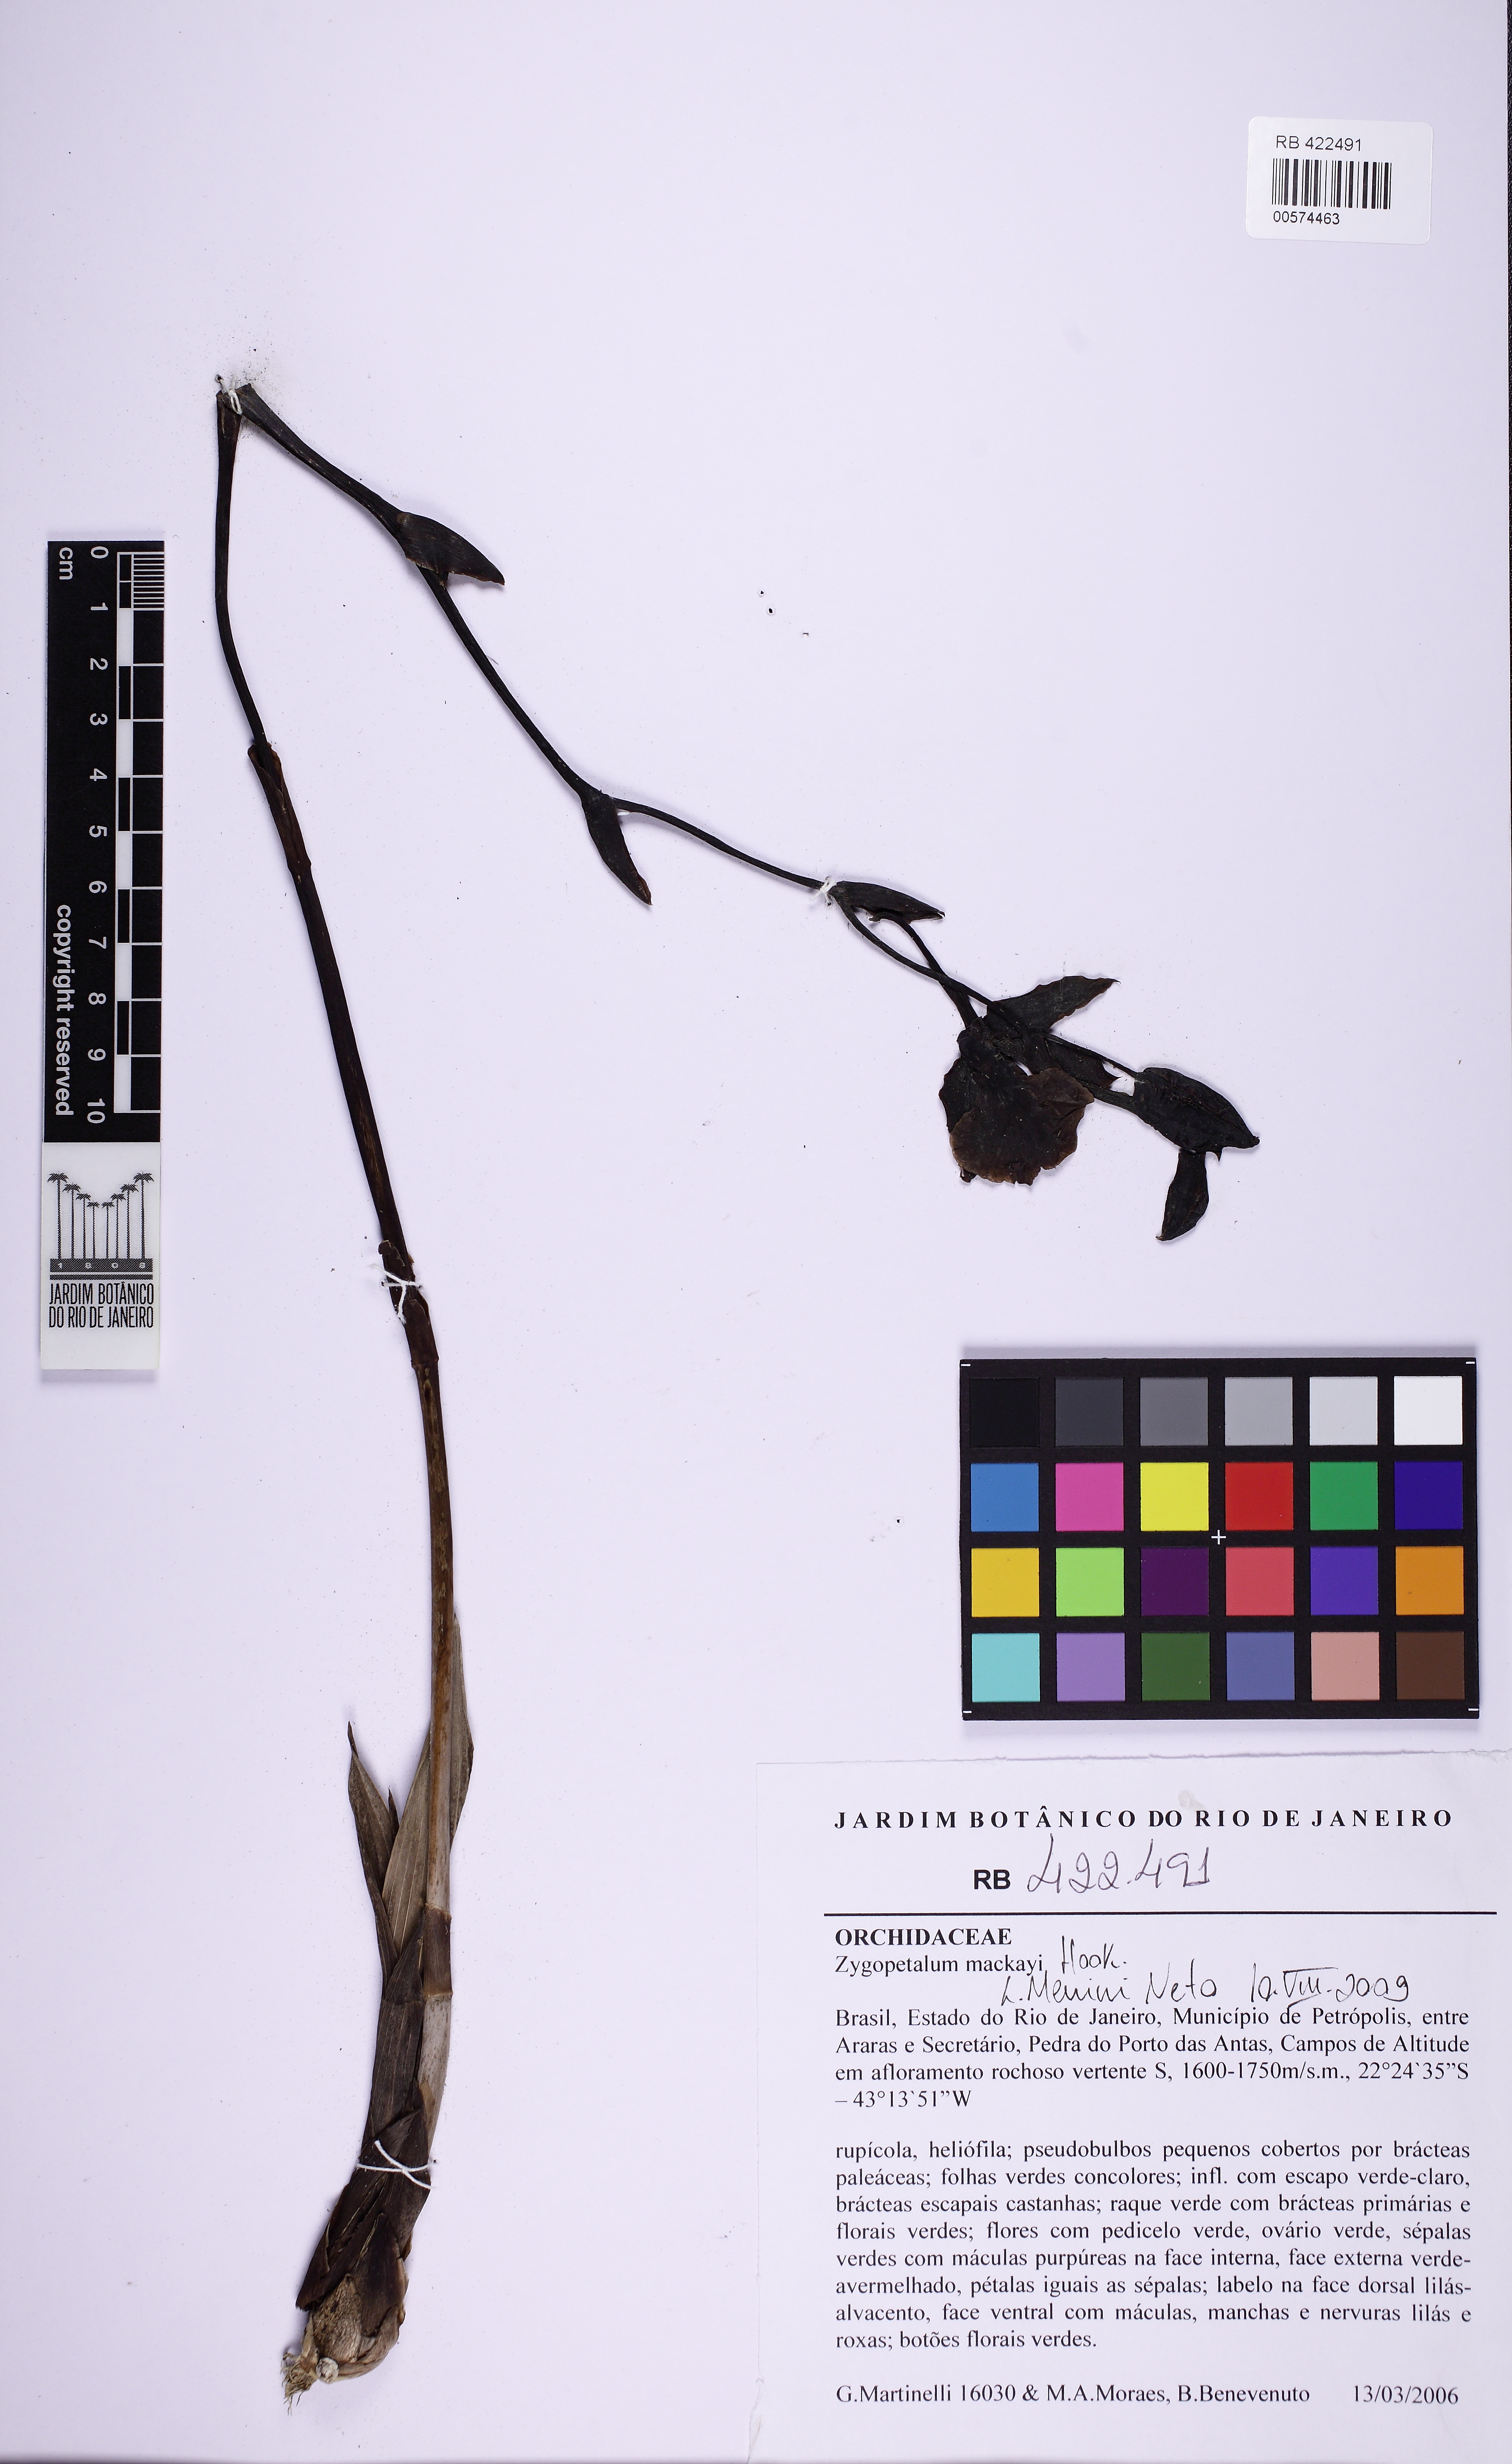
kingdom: Plantae
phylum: Tracheophyta
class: Liliopsida
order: Asparagales
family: Orchidaceae
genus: Zygopetalum
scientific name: Zygopetalum maculatum
